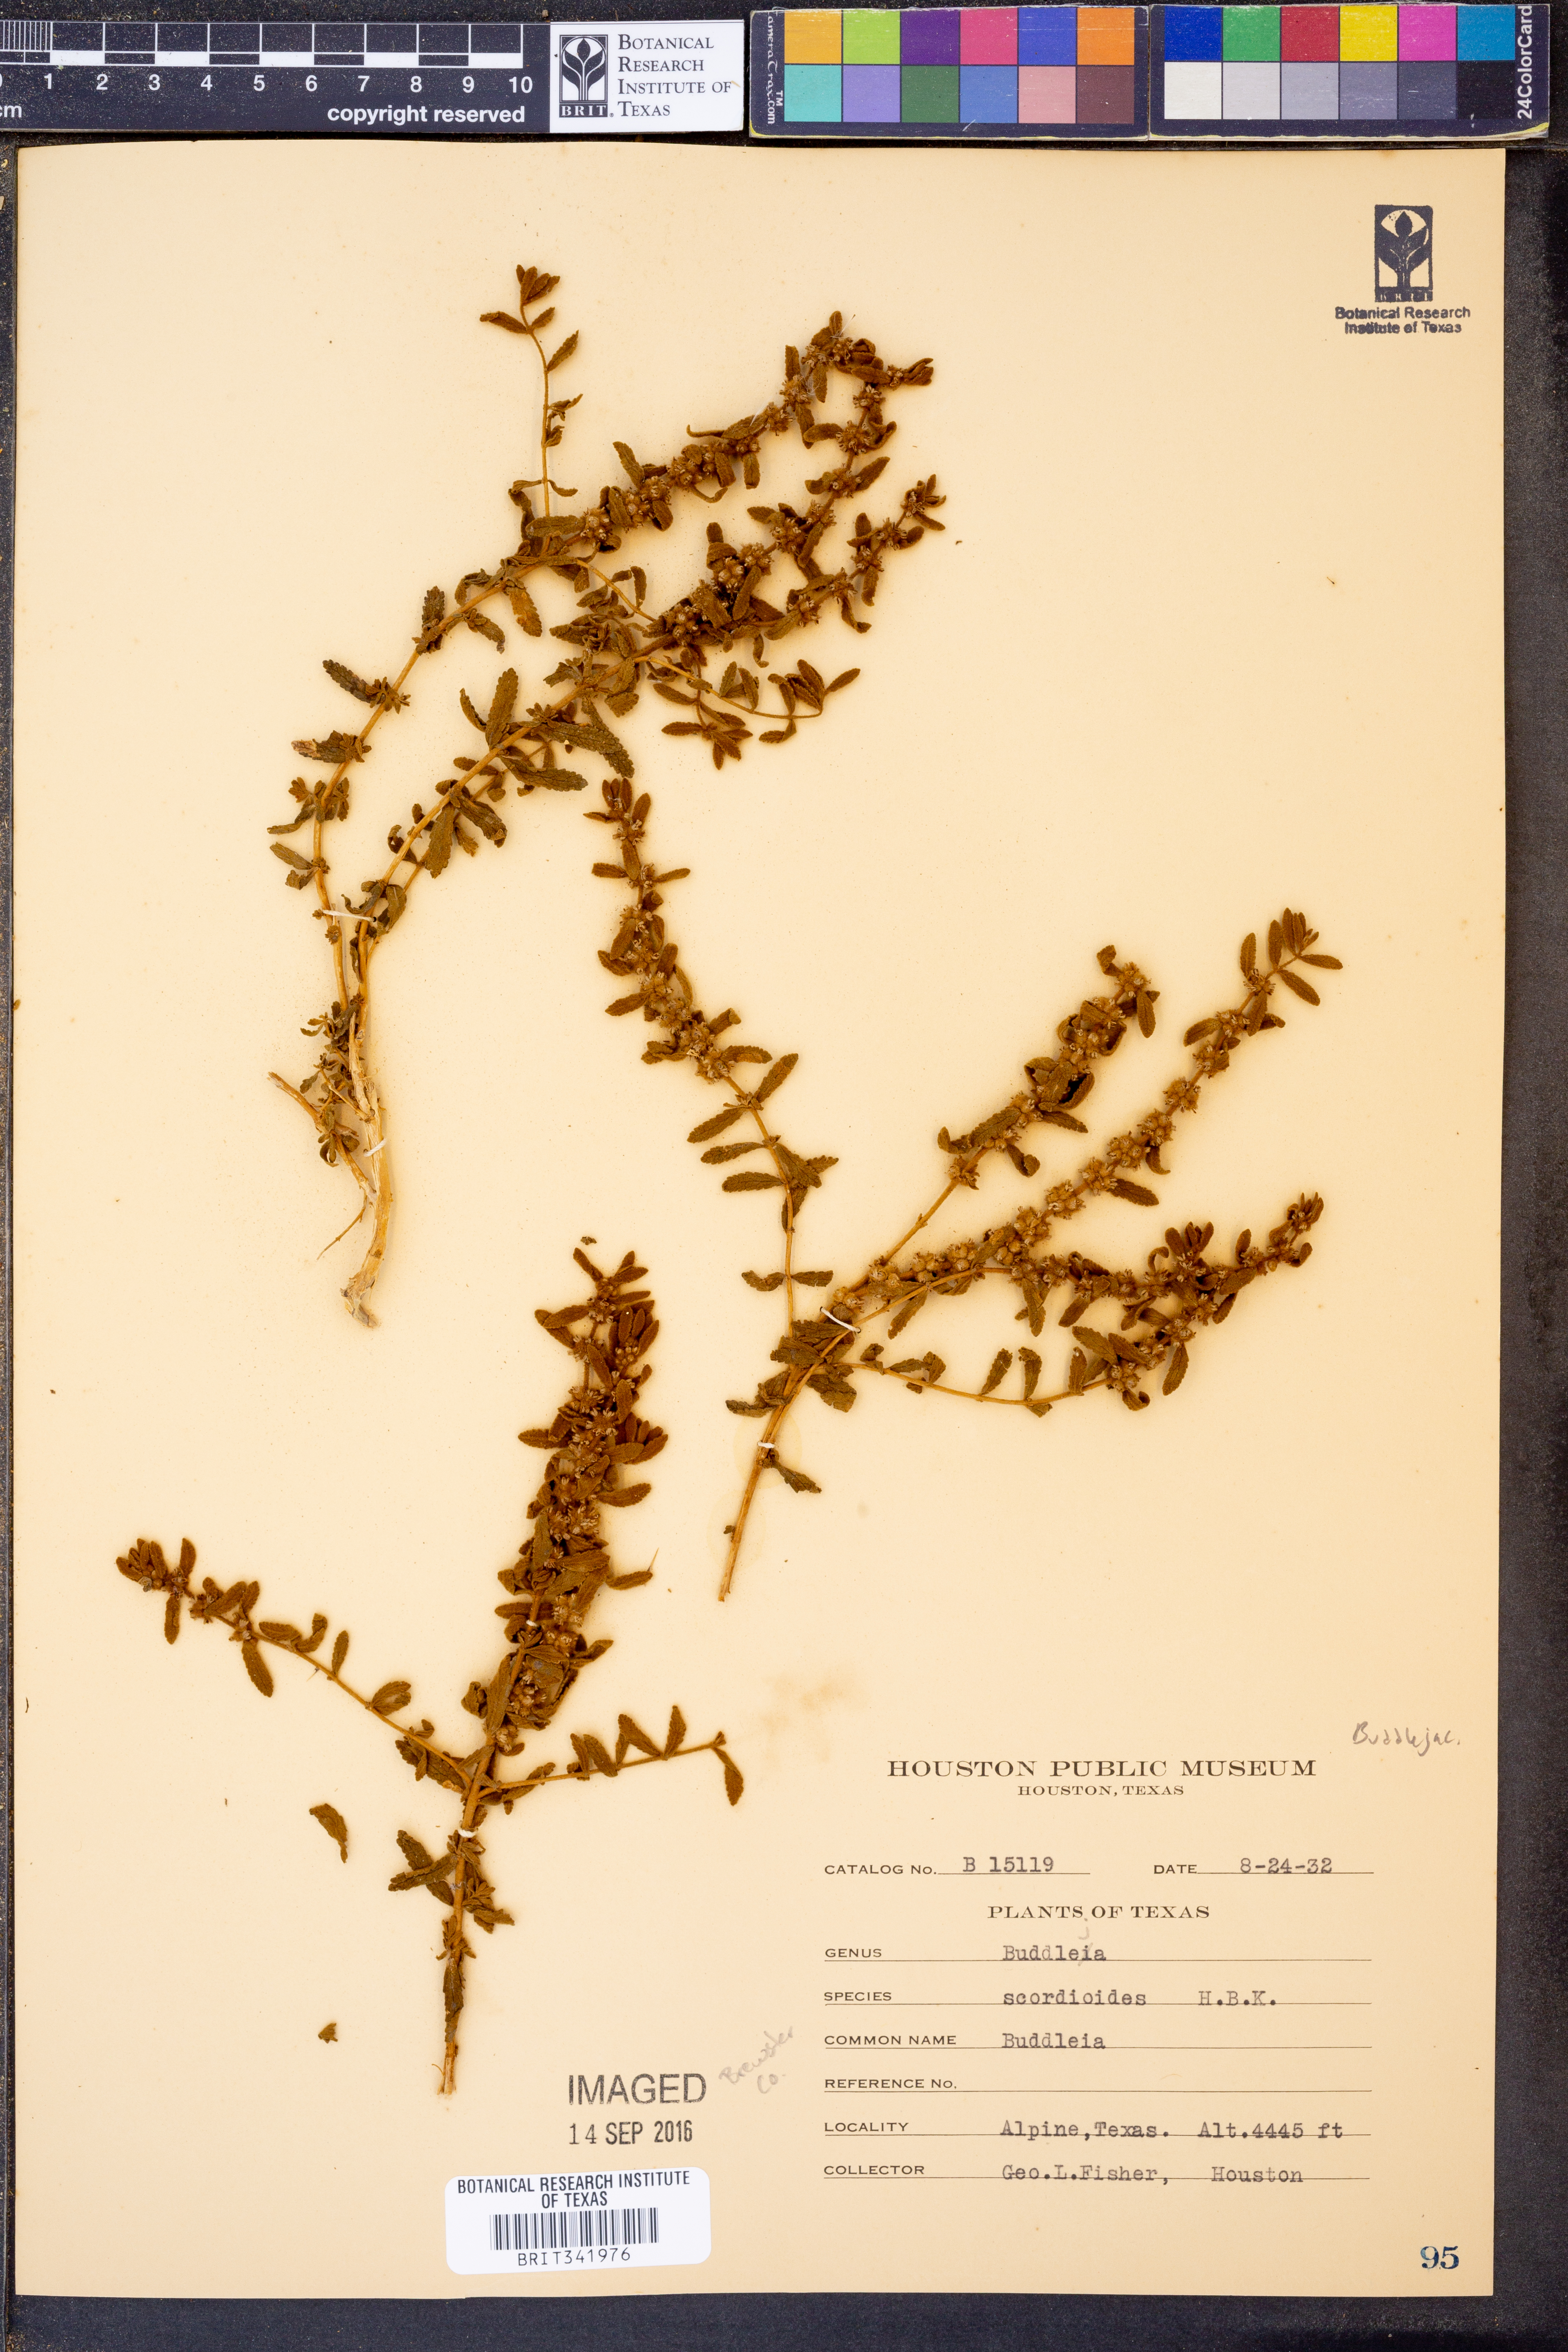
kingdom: Plantae
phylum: Tracheophyta
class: Magnoliopsida
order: Lamiales
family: Scrophulariaceae
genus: Buddleja
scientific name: Buddleja scordioides
